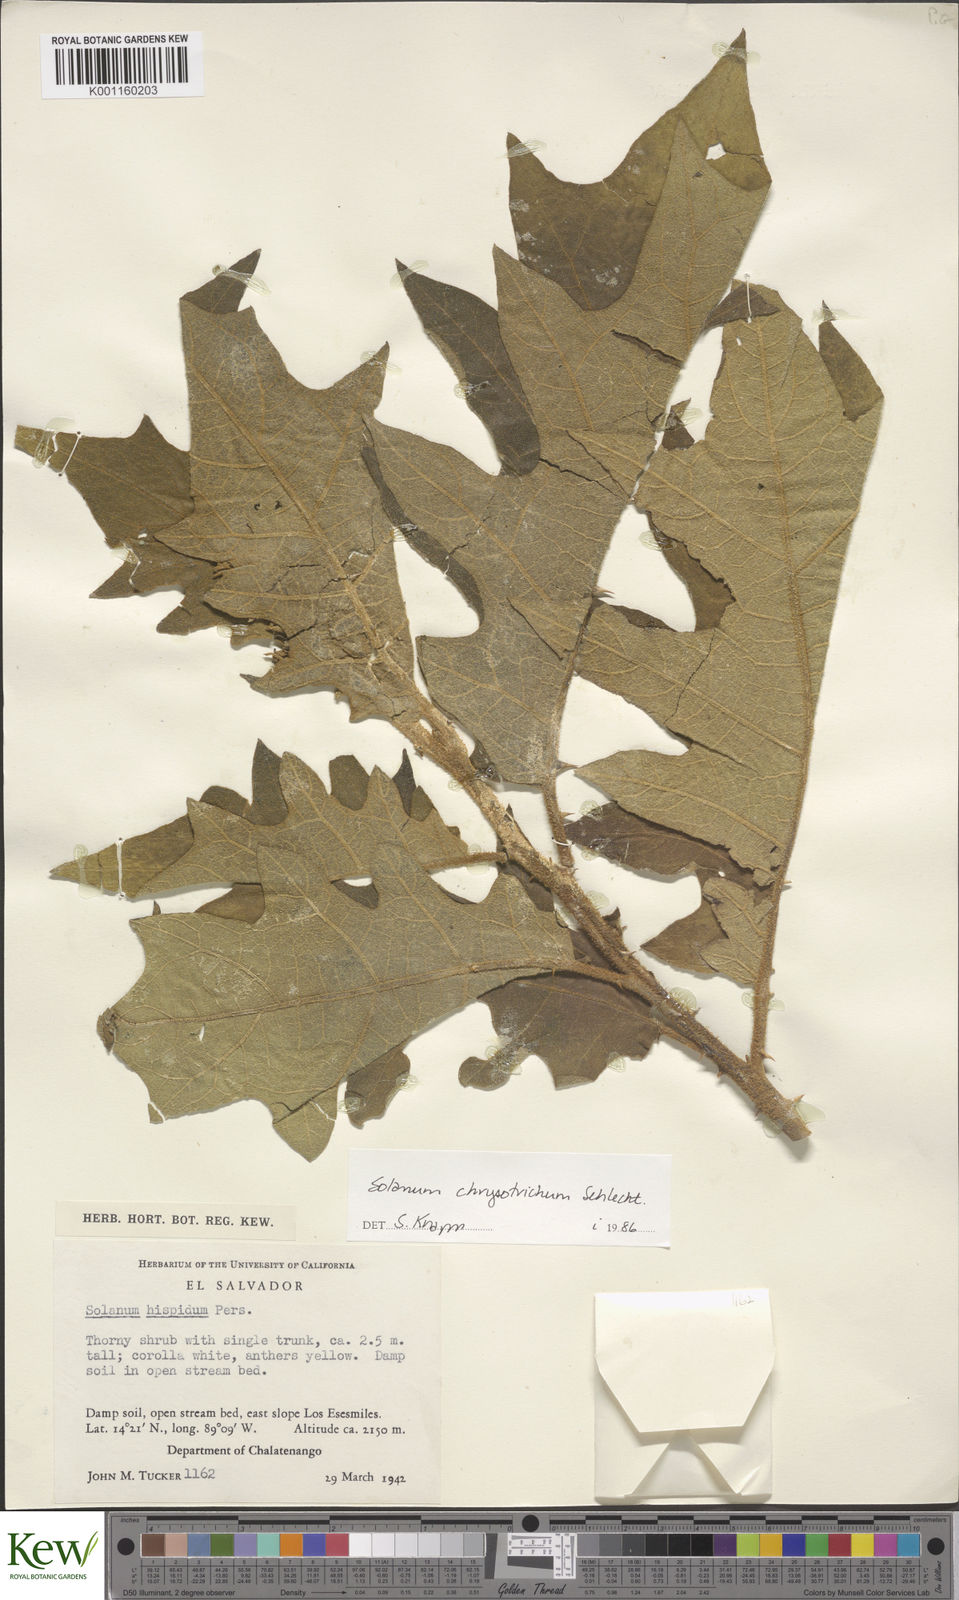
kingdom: Plantae
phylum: Tracheophyta
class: Magnoliopsida
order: Solanales
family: Solanaceae
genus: Solanum
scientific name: Solanum chrysotrichum
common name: Nightshade
